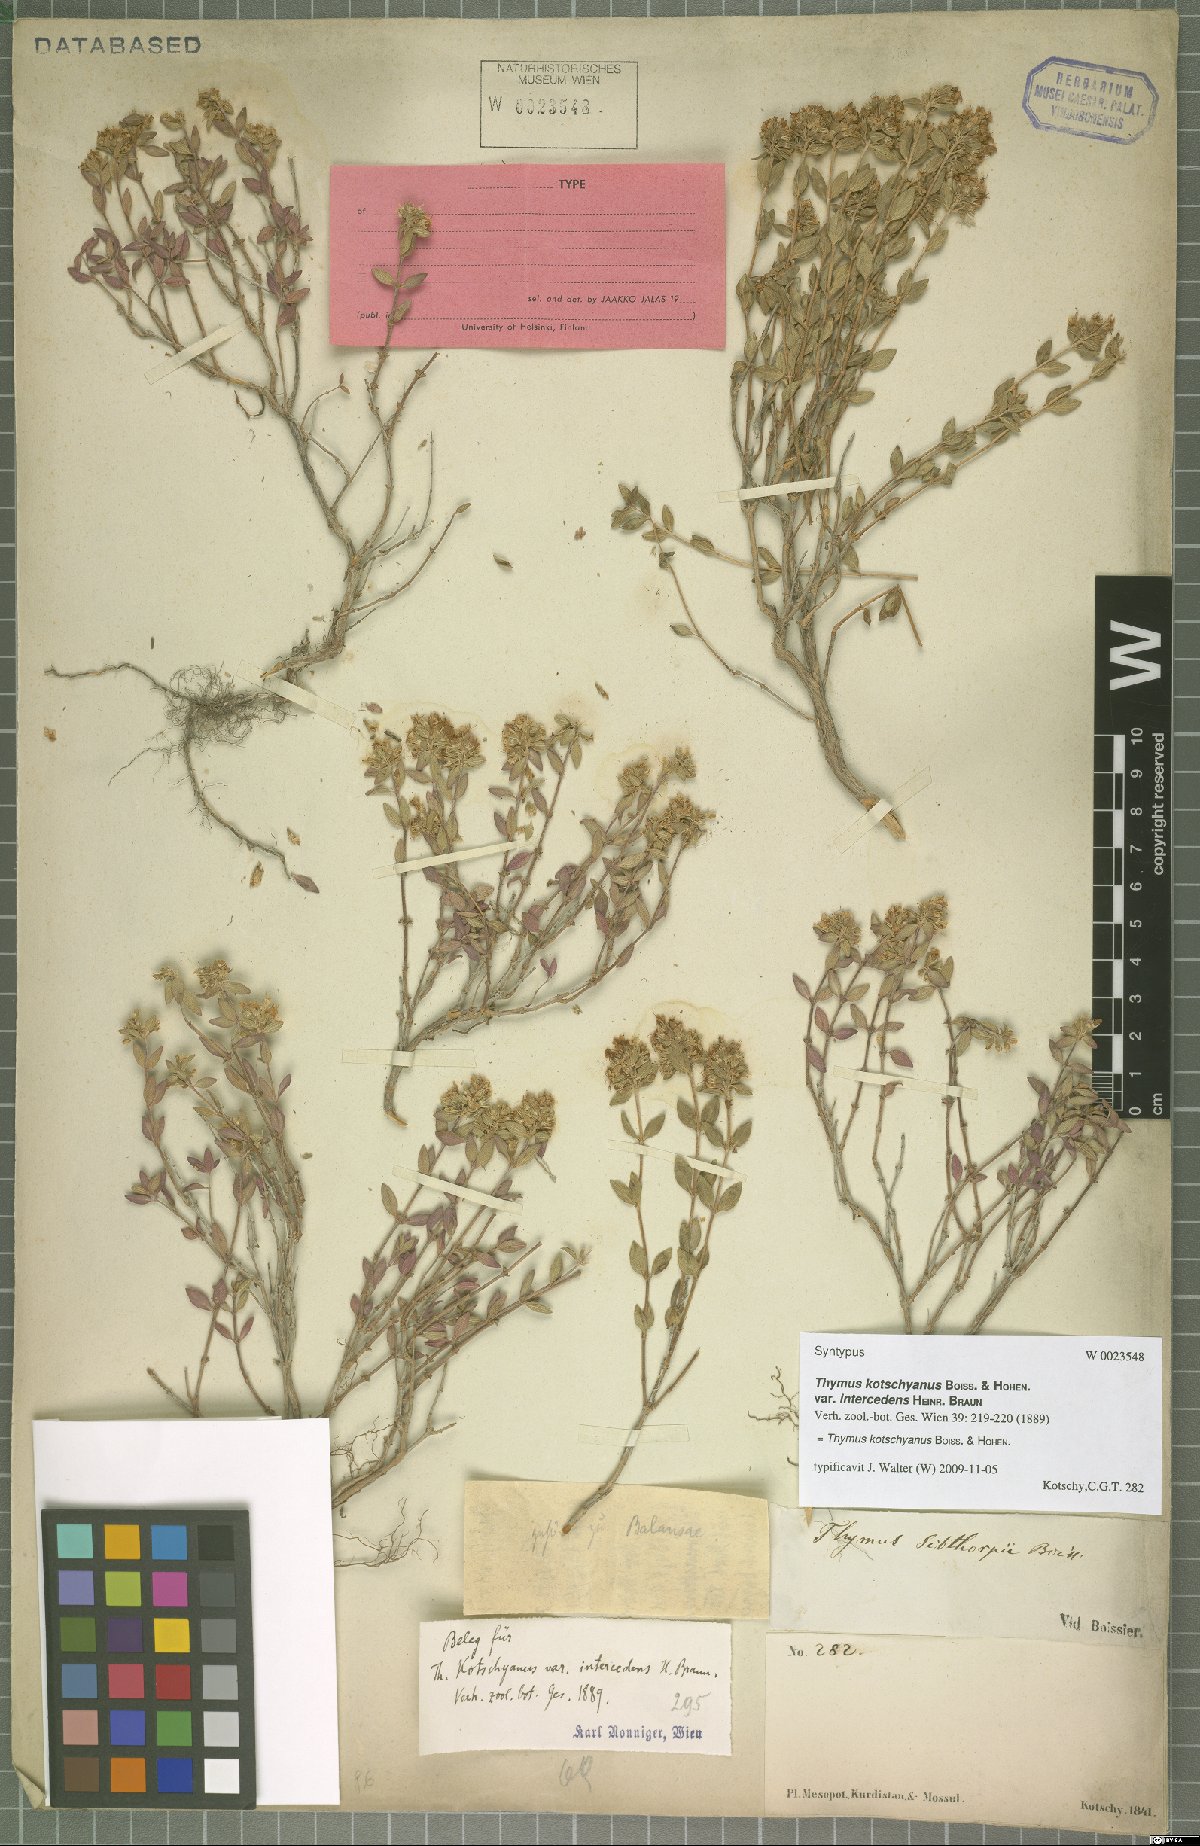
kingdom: Plantae
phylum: Tracheophyta
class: Magnoliopsida
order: Lamiales
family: Lamiaceae
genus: Thymus
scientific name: Thymus kotschyanus
